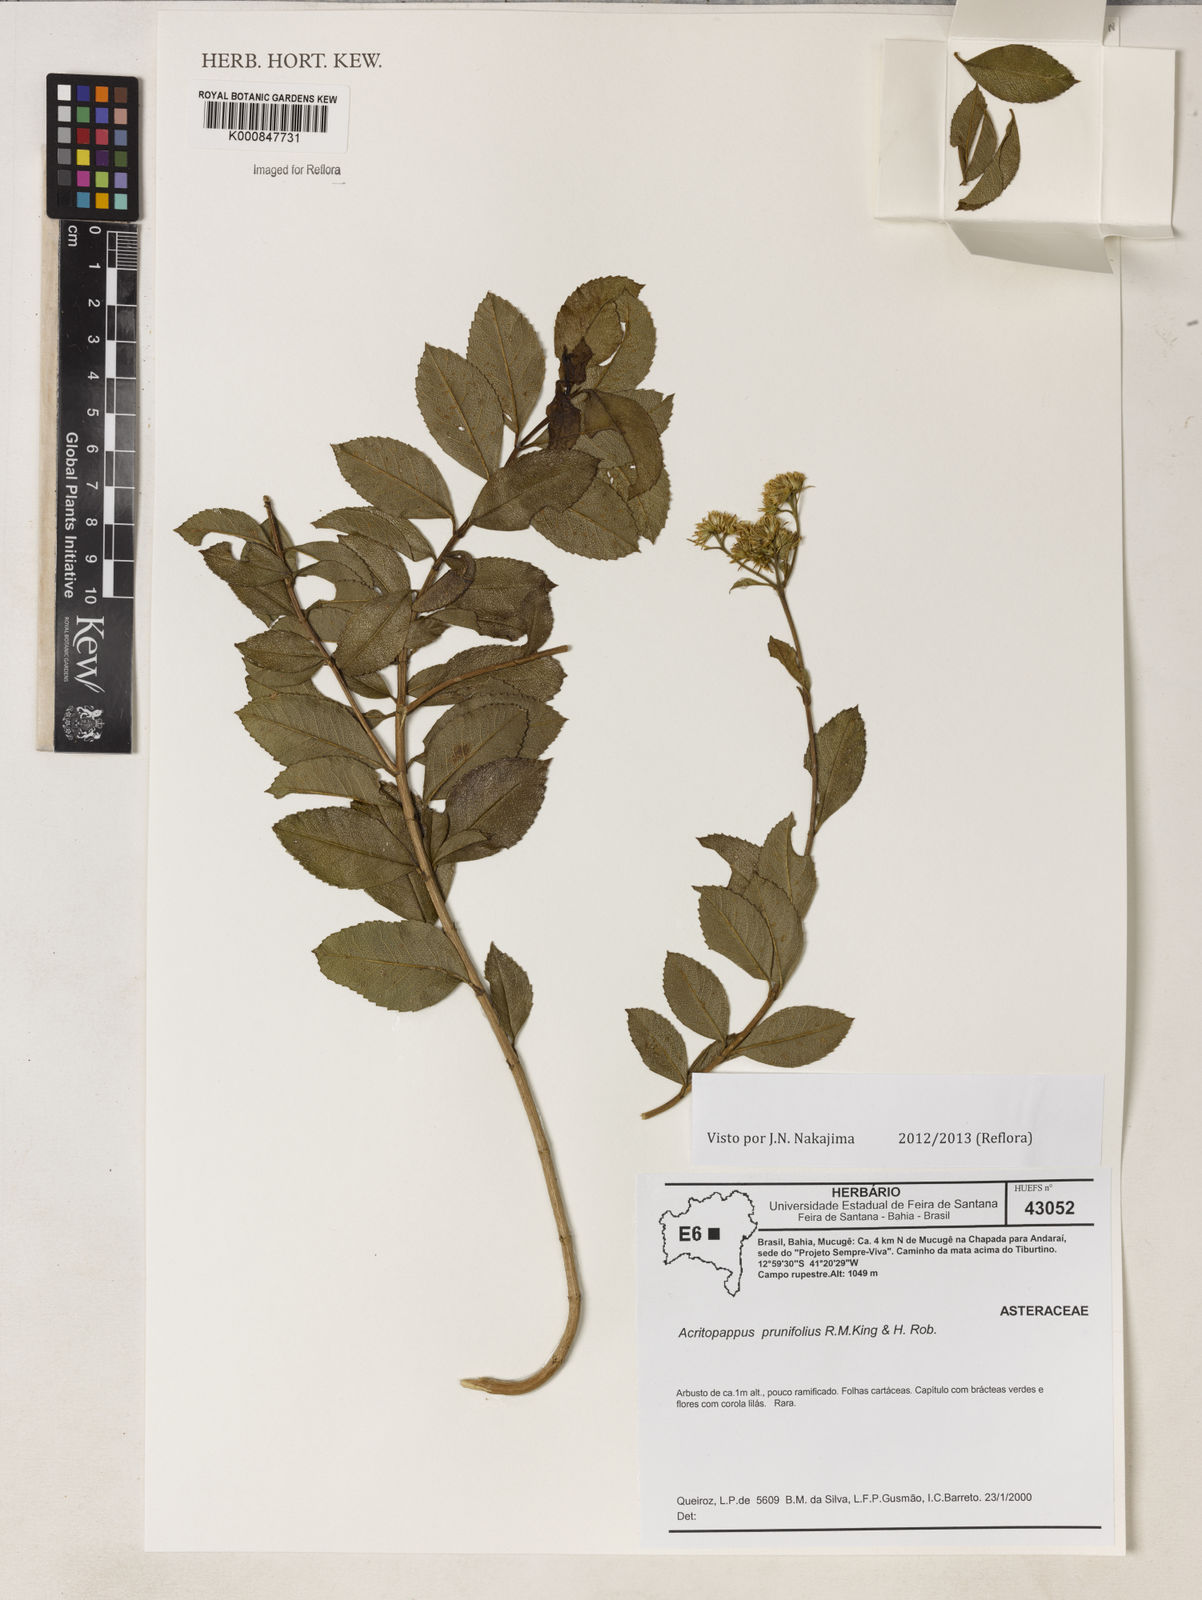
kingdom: Plantae
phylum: Tracheophyta
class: Magnoliopsida
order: Asterales
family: Asteraceae
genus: Acritopappus
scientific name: Acritopappus prunifolius
